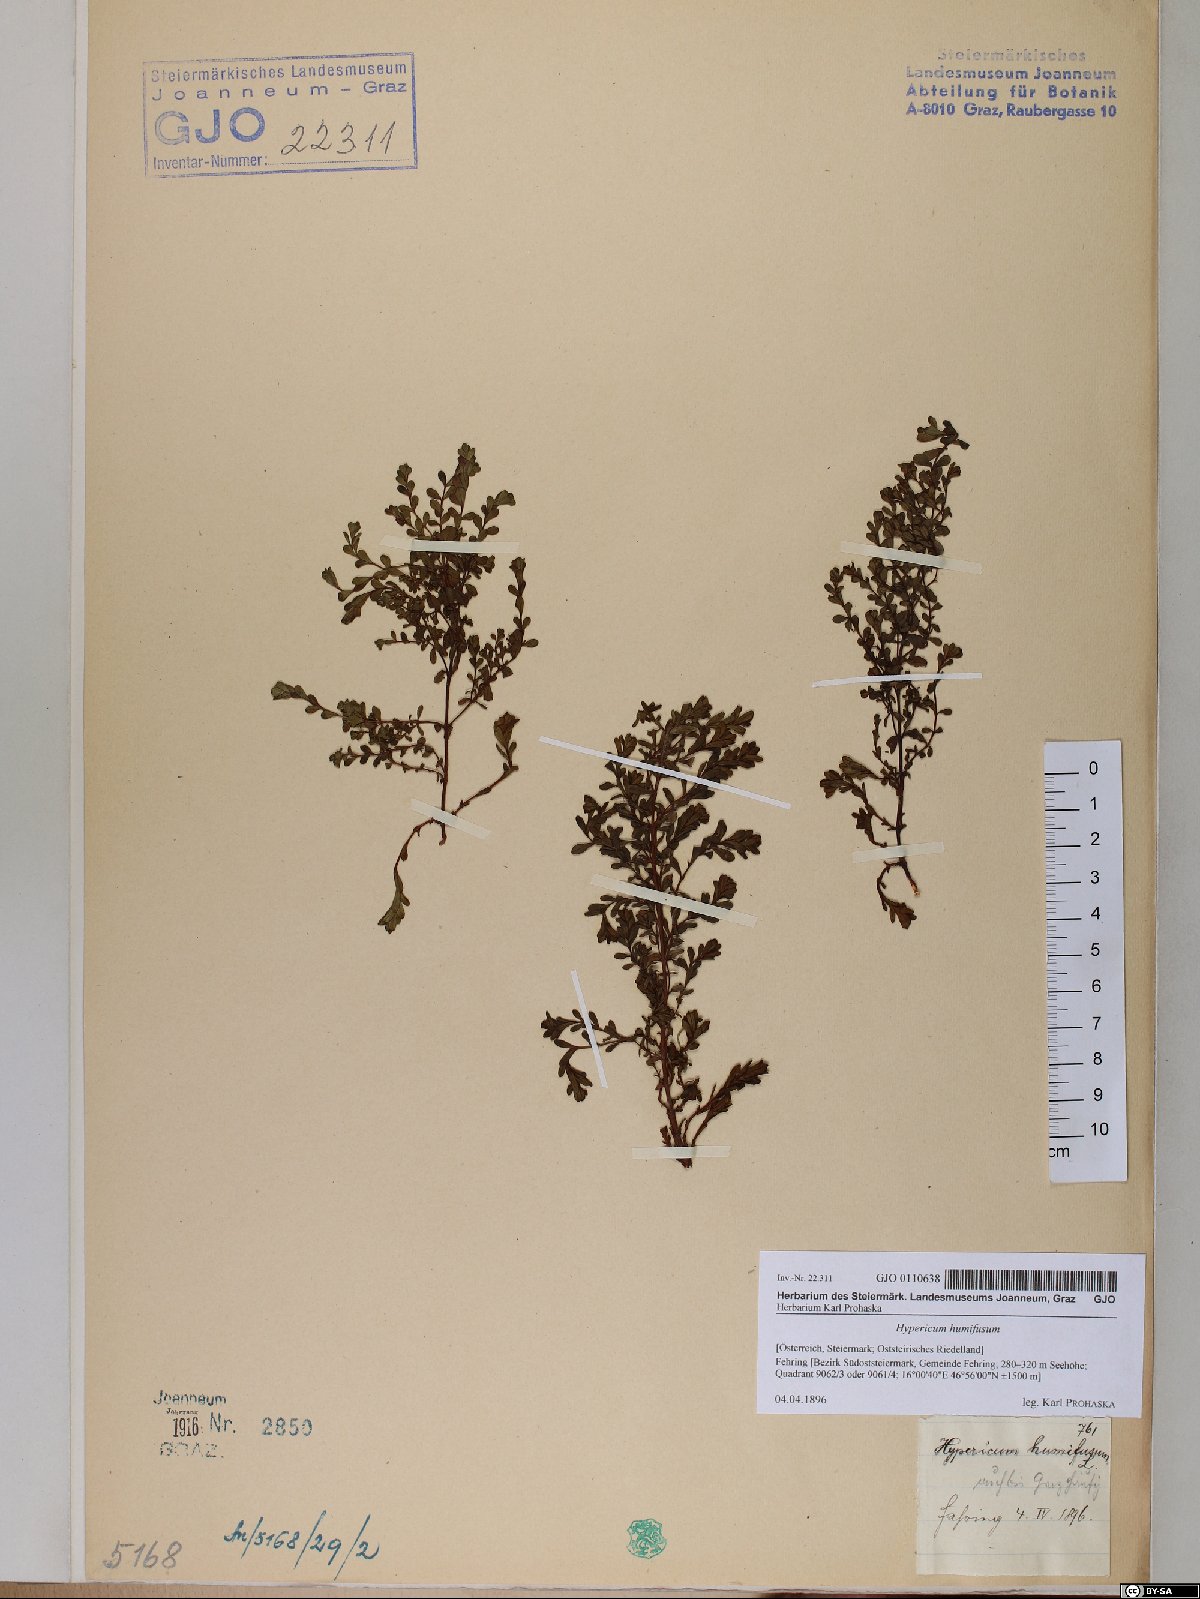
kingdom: Plantae
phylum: Tracheophyta
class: Magnoliopsida
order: Malpighiales
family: Hypericaceae
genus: Hypericum
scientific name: Hypericum humifusum
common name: Trailing st. john's-wort
